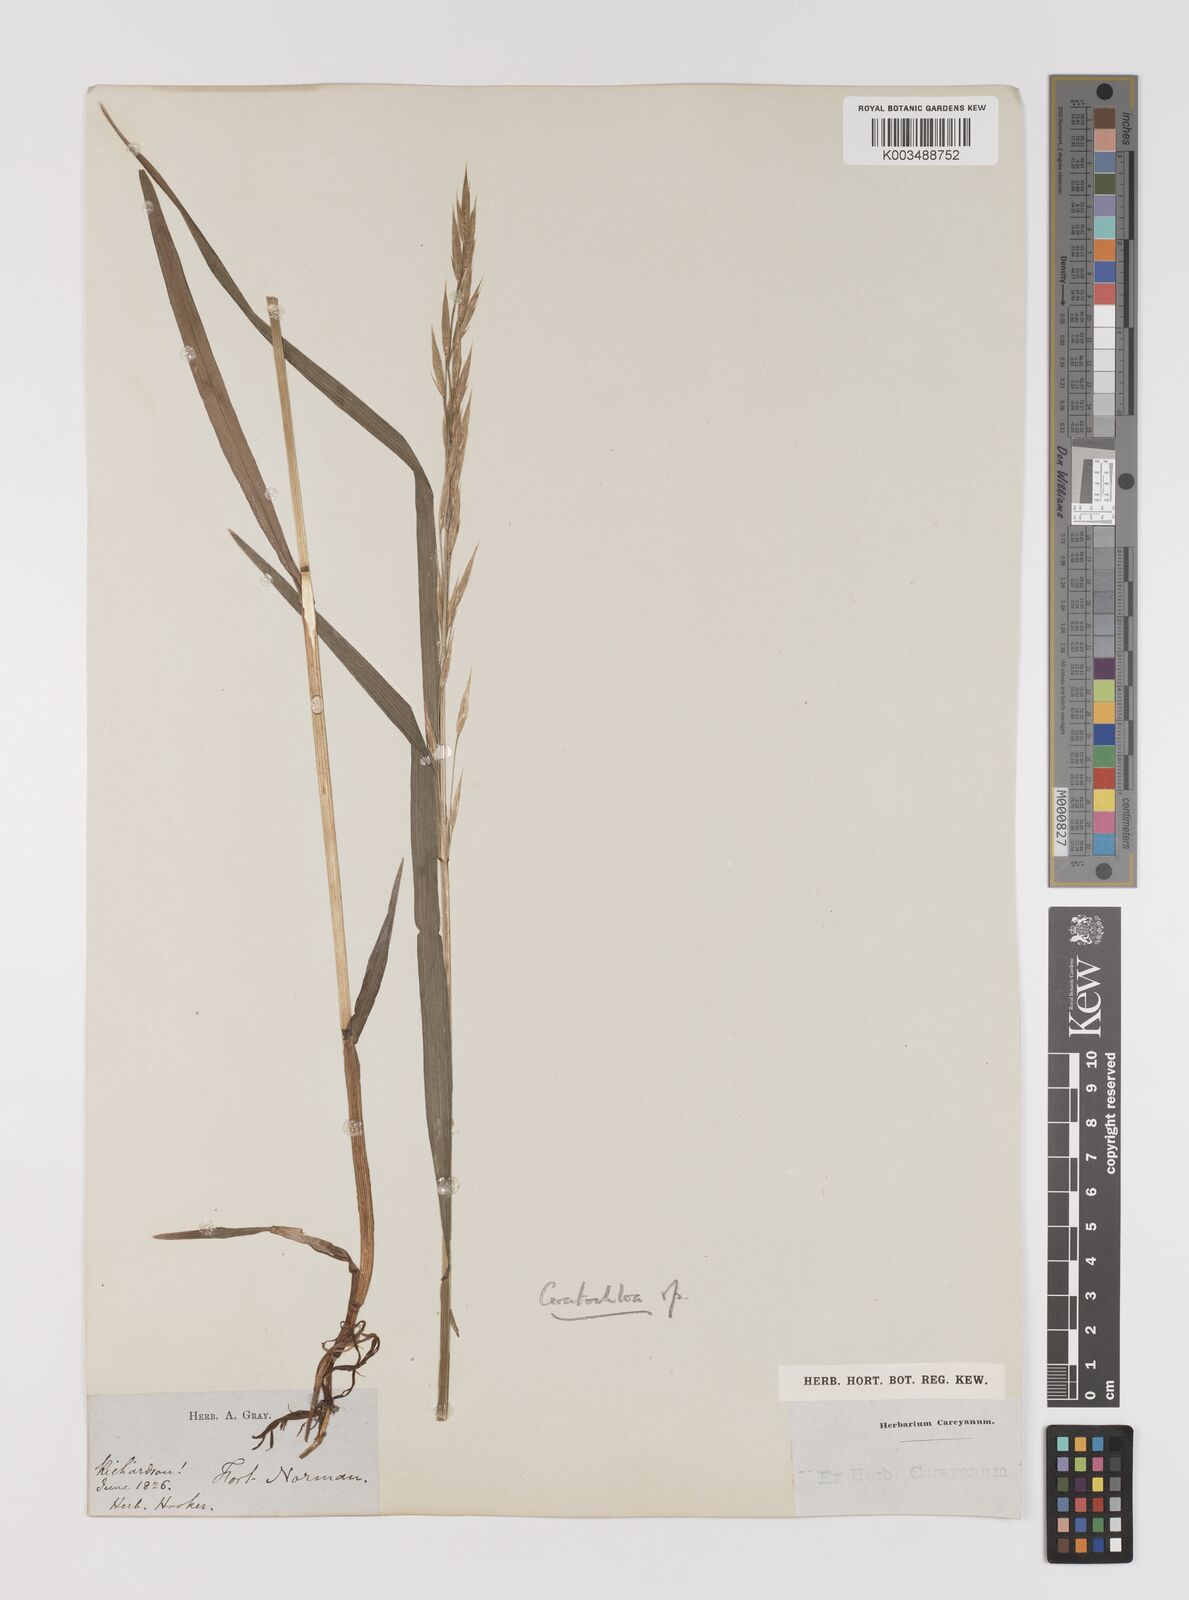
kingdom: Plantae
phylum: Tracheophyta
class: Liliopsida
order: Poales
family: Poaceae
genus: Bromus
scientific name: Bromus
